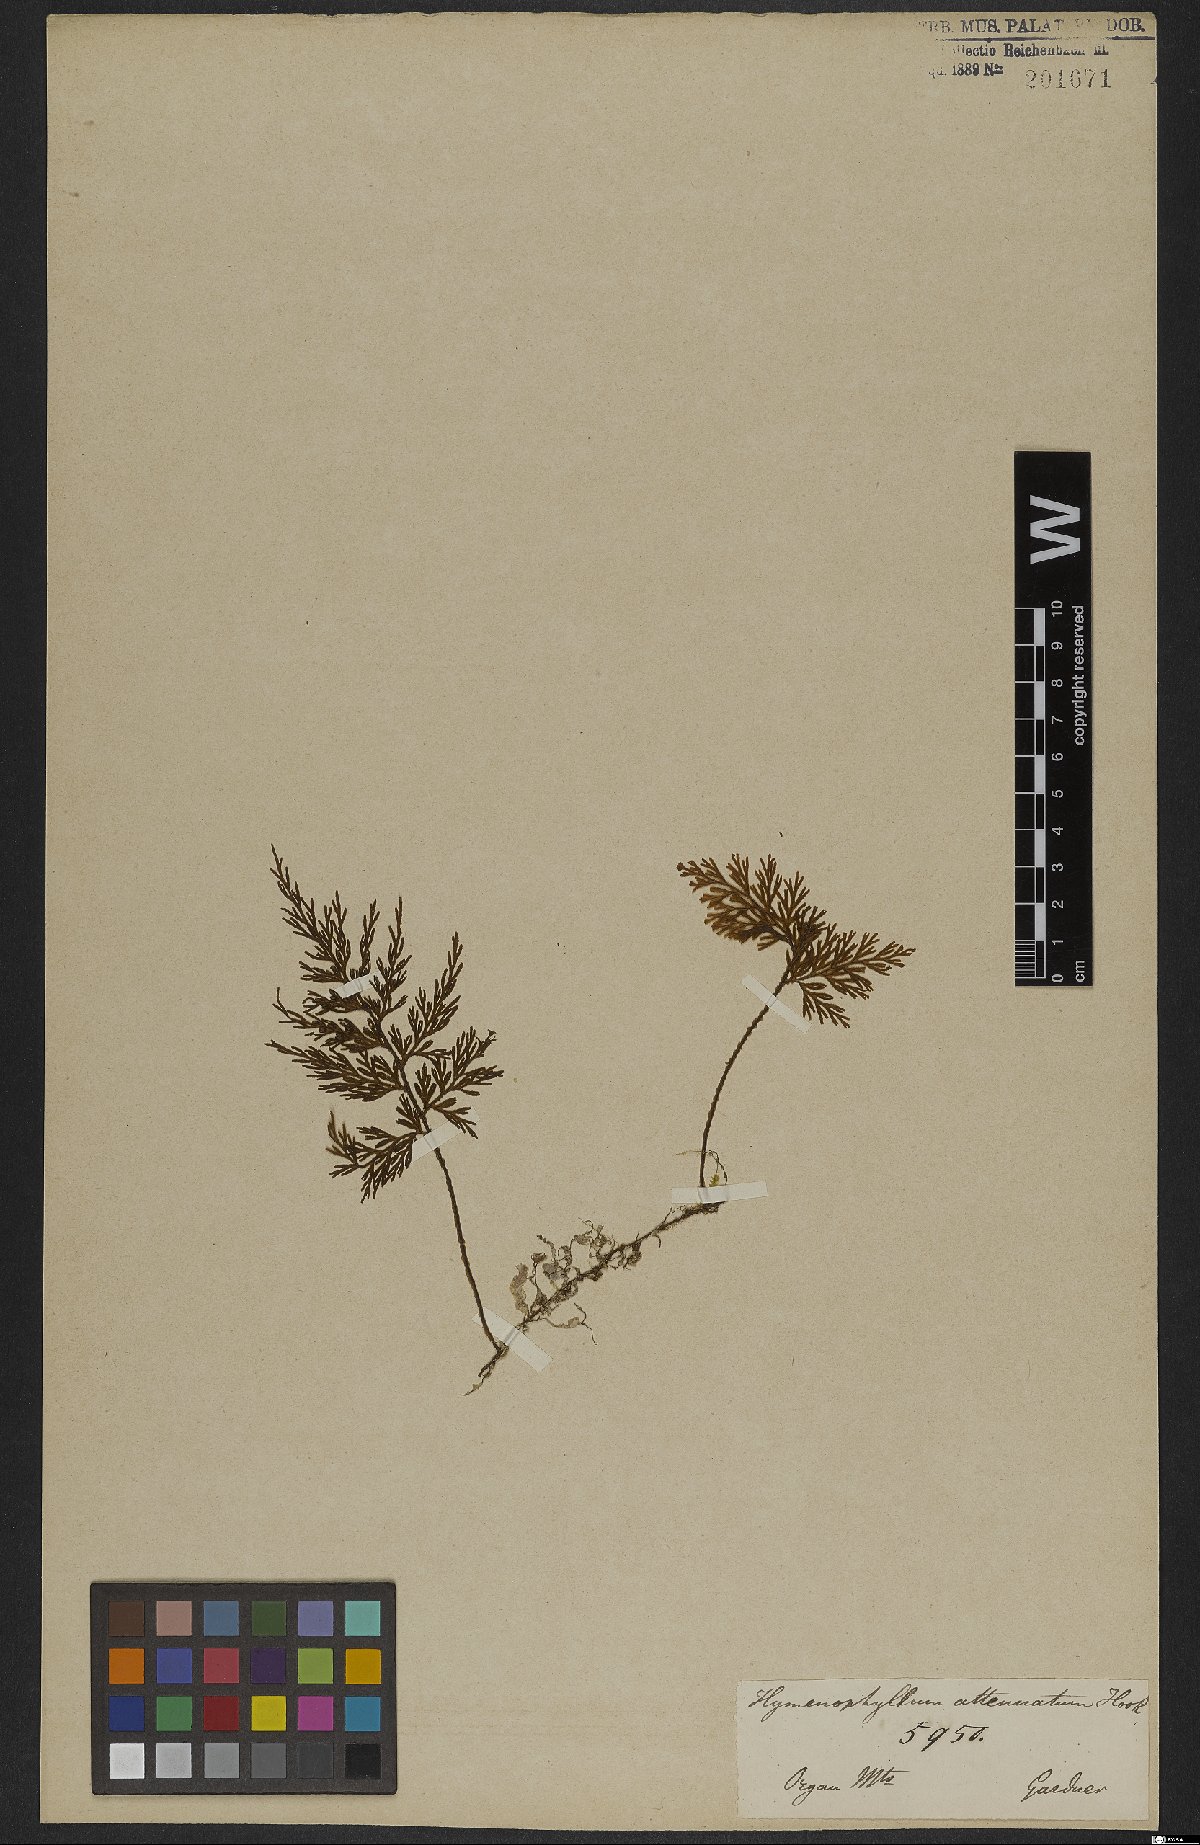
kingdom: Plantae
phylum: Tracheophyta
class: Polypodiopsida
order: Hymenophyllales
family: Hymenophyllaceae
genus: Hymenophyllum
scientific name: Hymenophyllum seselifolium
